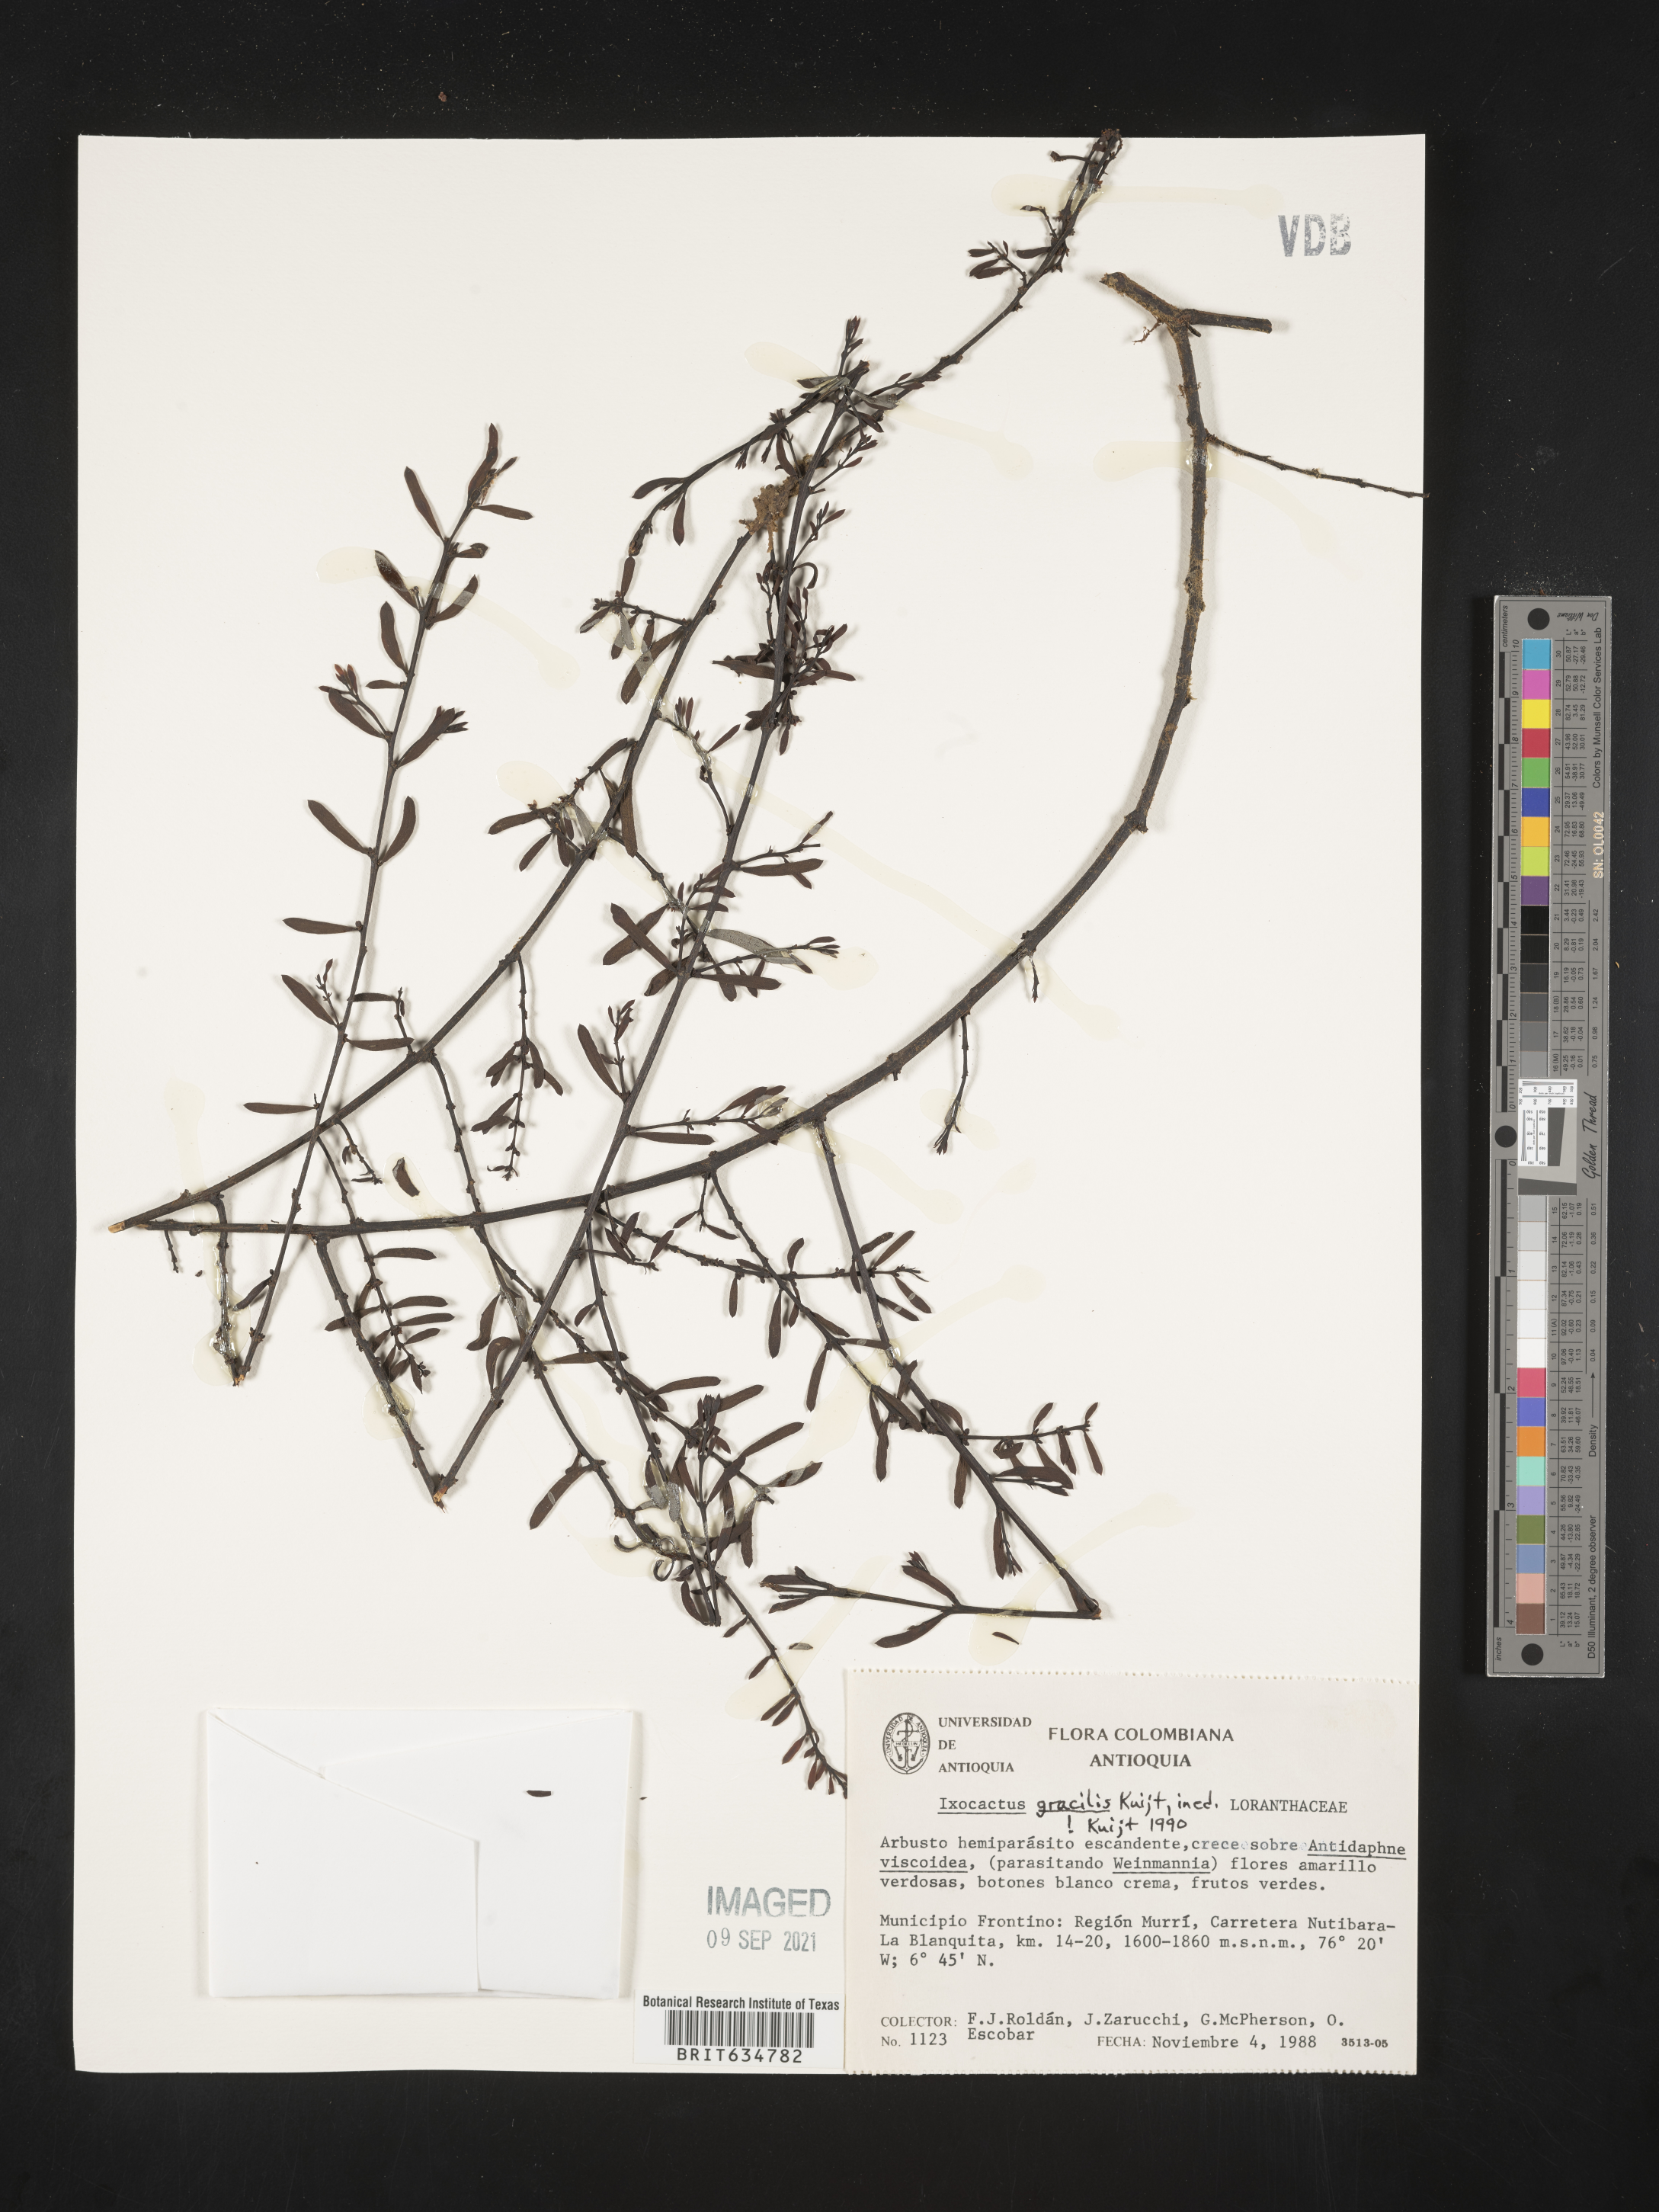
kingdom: Plantae
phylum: Tracheophyta
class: Magnoliopsida
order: Santalales
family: Loranthaceae
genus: Phthirusa
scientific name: Phthirusa
